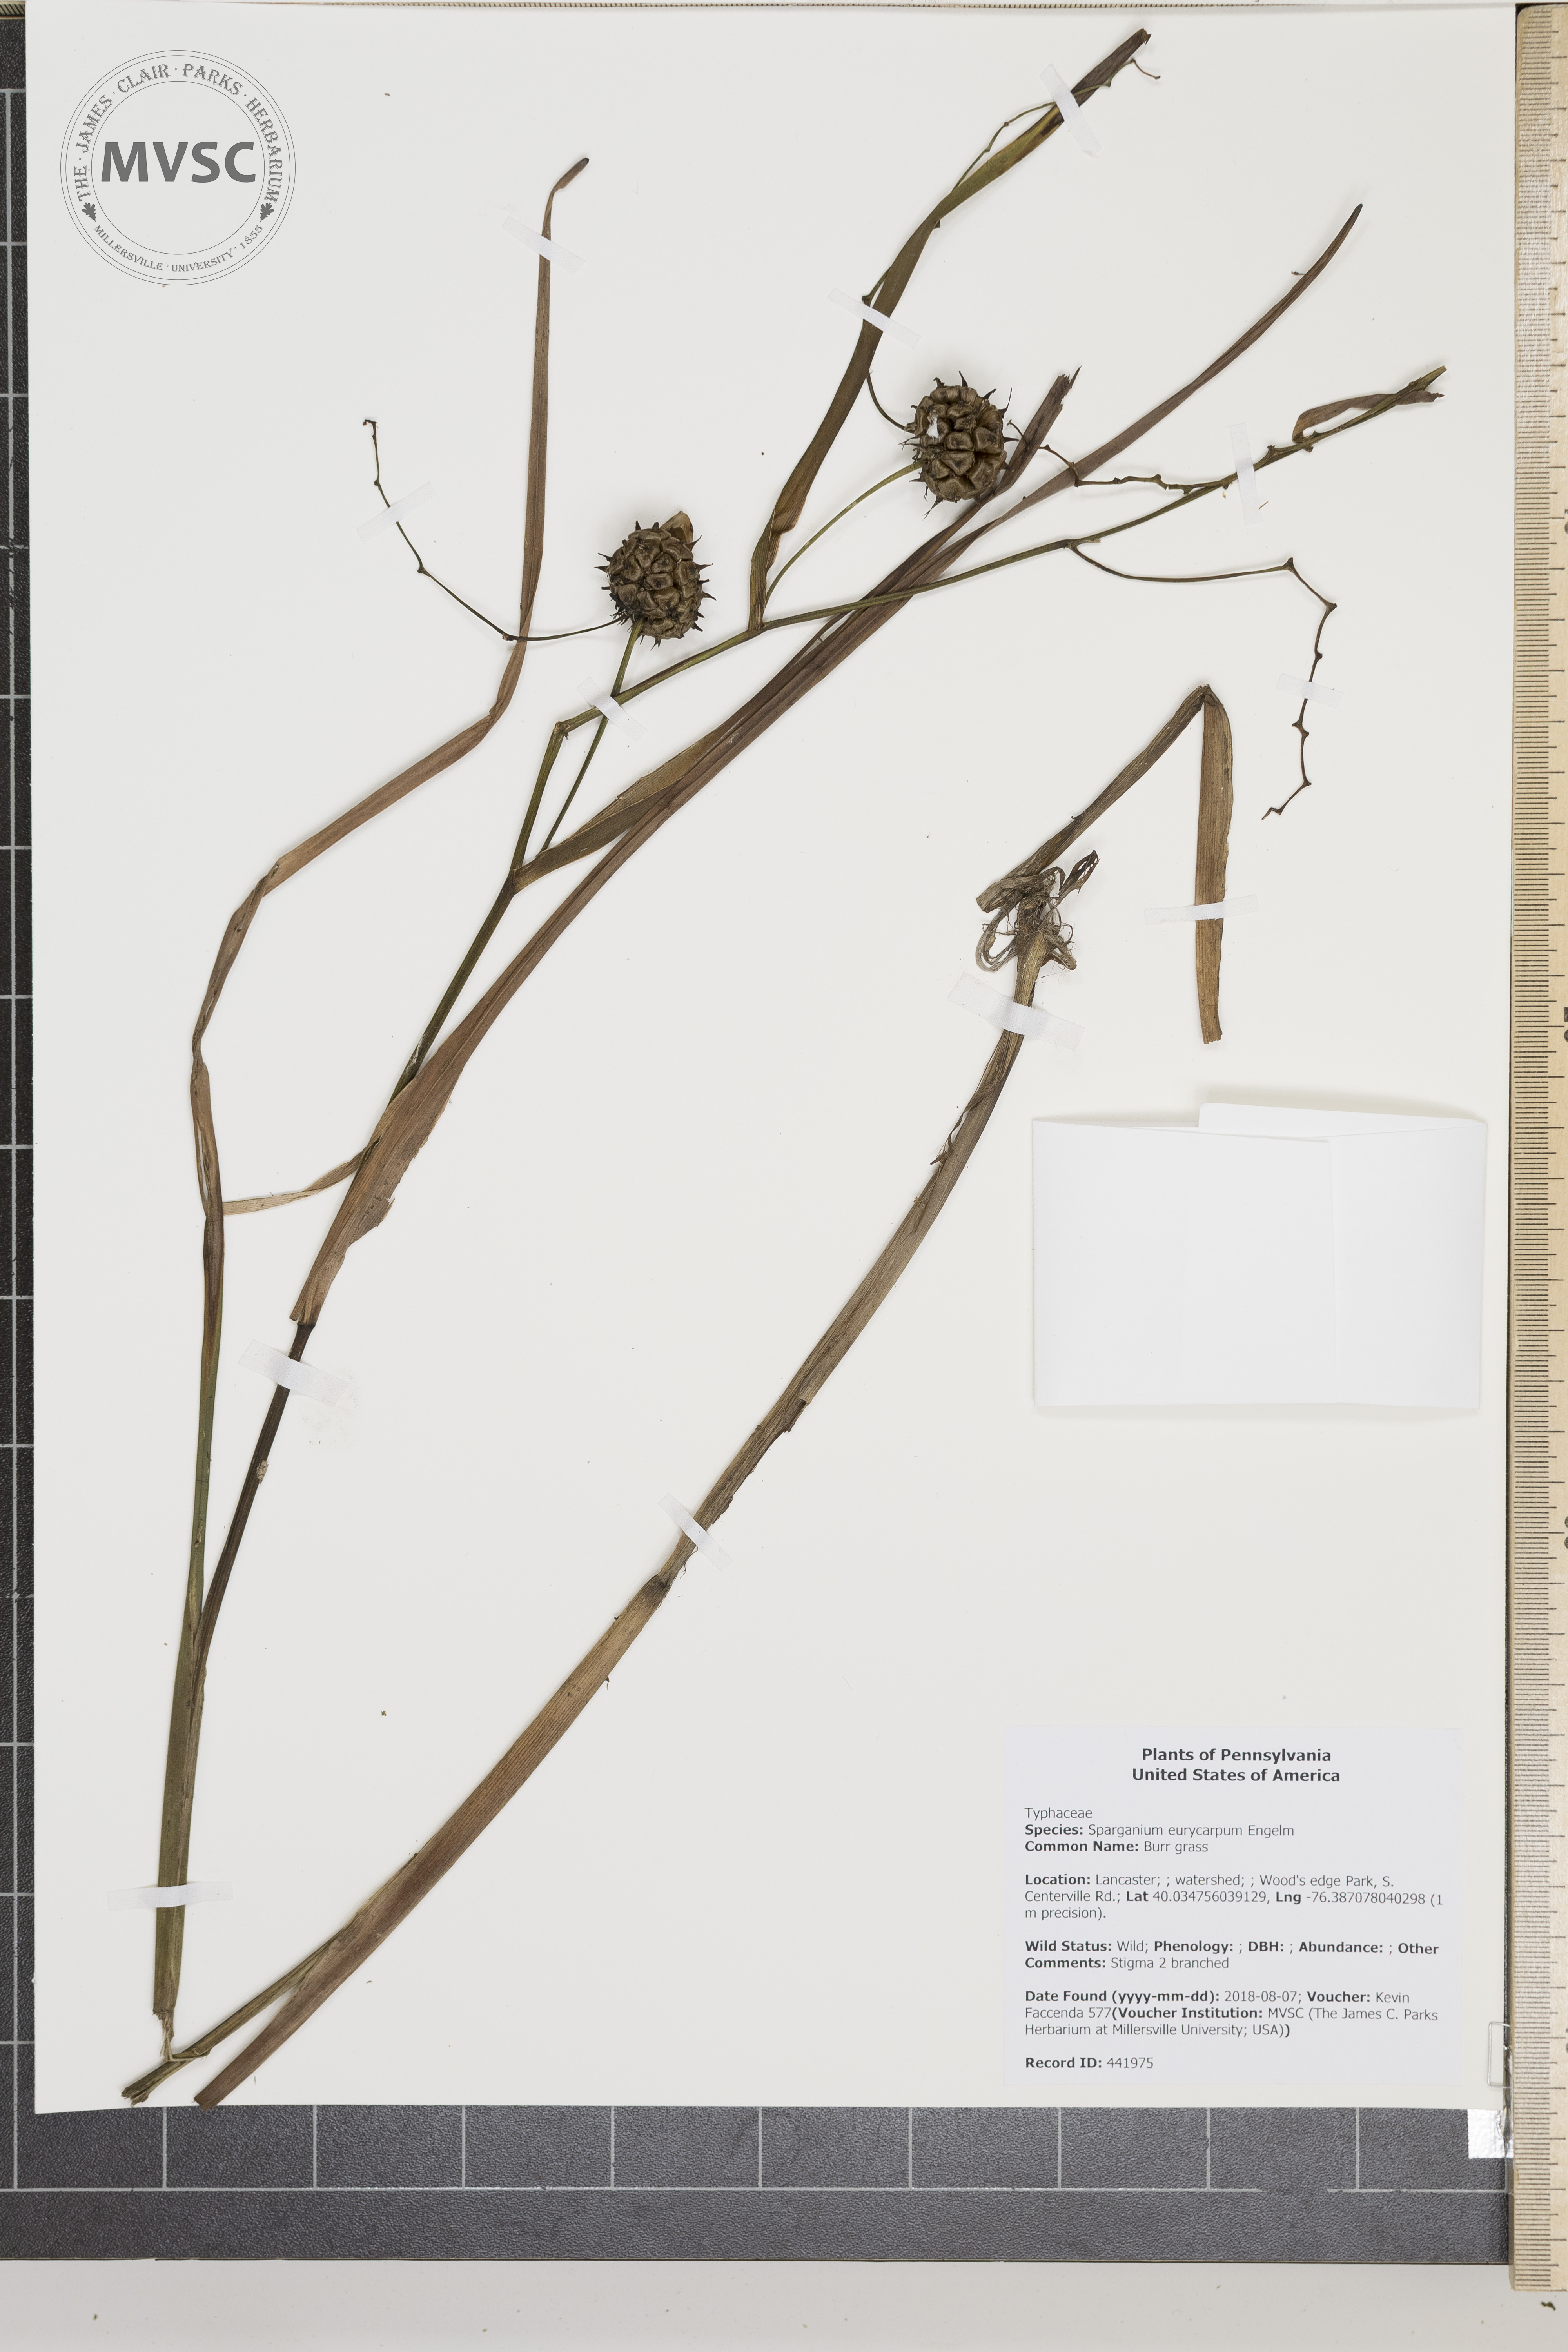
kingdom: Plantae
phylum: Tracheophyta
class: Liliopsida
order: Poales
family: Typhaceae
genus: Sparganium
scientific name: Sparganium eurycarpum
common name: Burr grass
